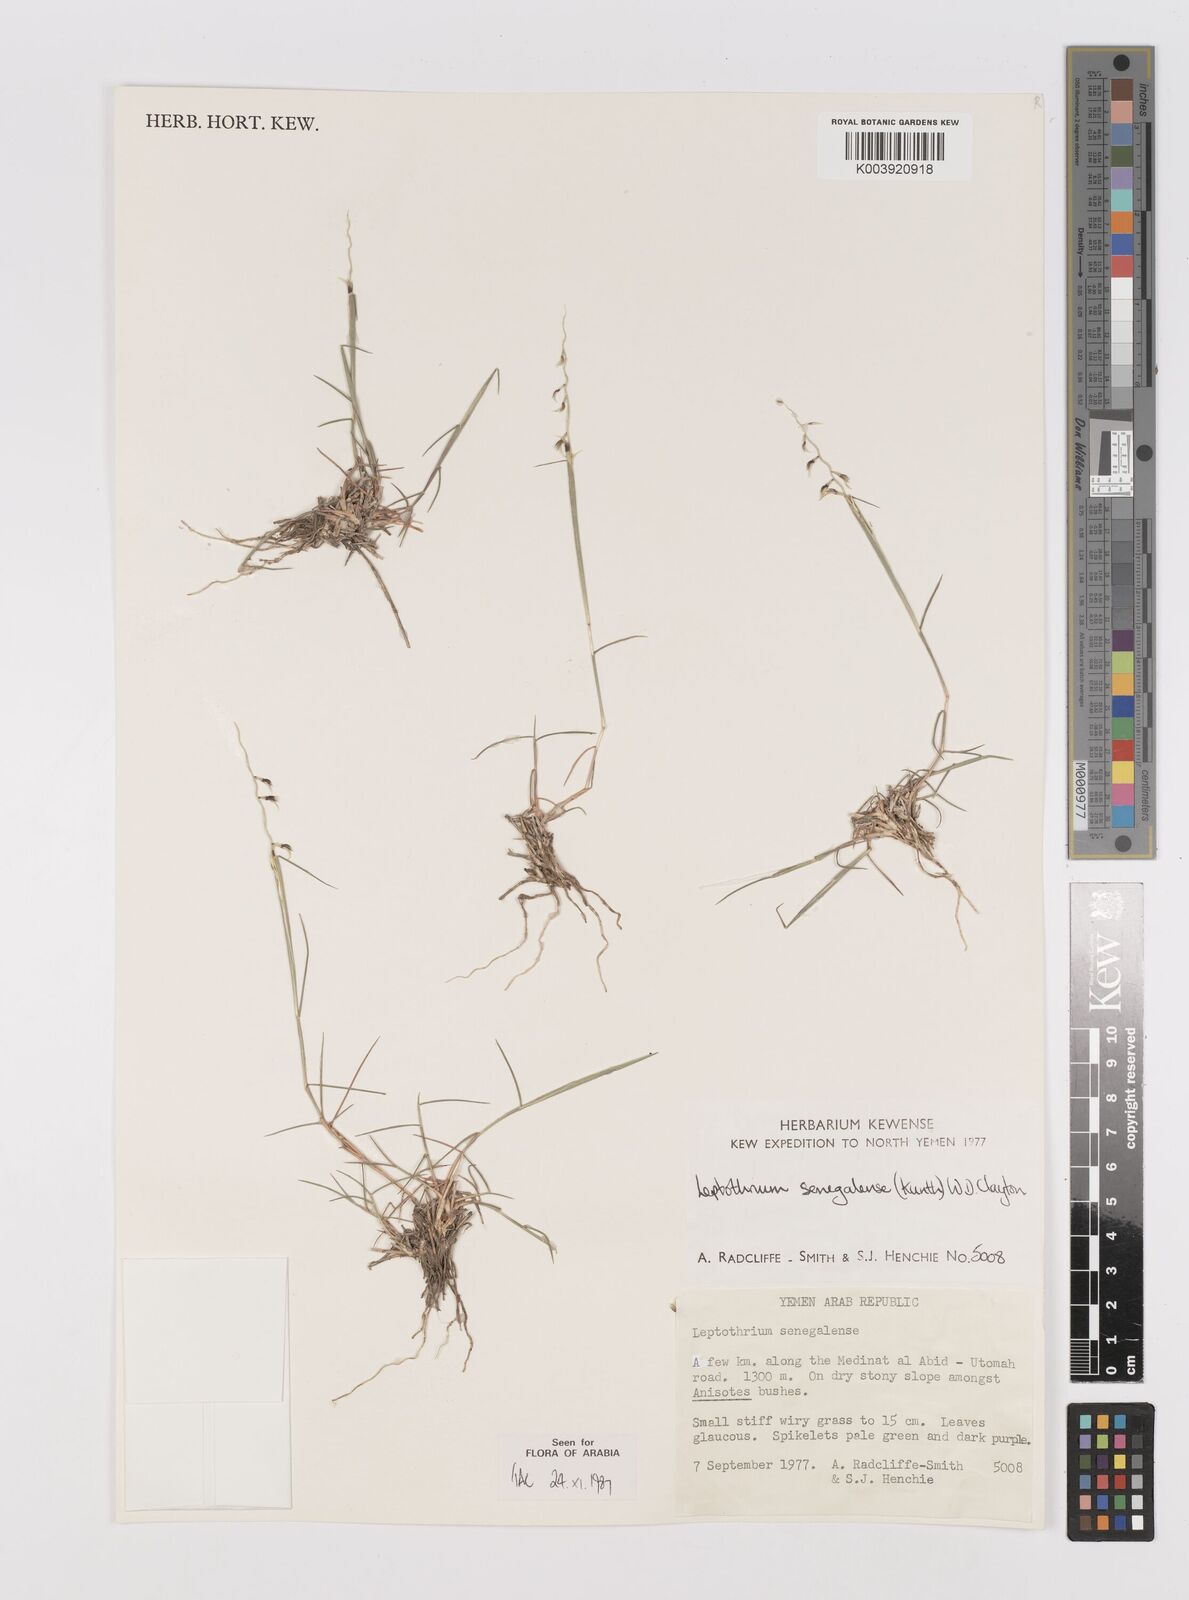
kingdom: Plantae
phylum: Tracheophyta
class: Liliopsida
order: Poales
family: Poaceae
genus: Leptothrium
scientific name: Leptothrium senegalense
